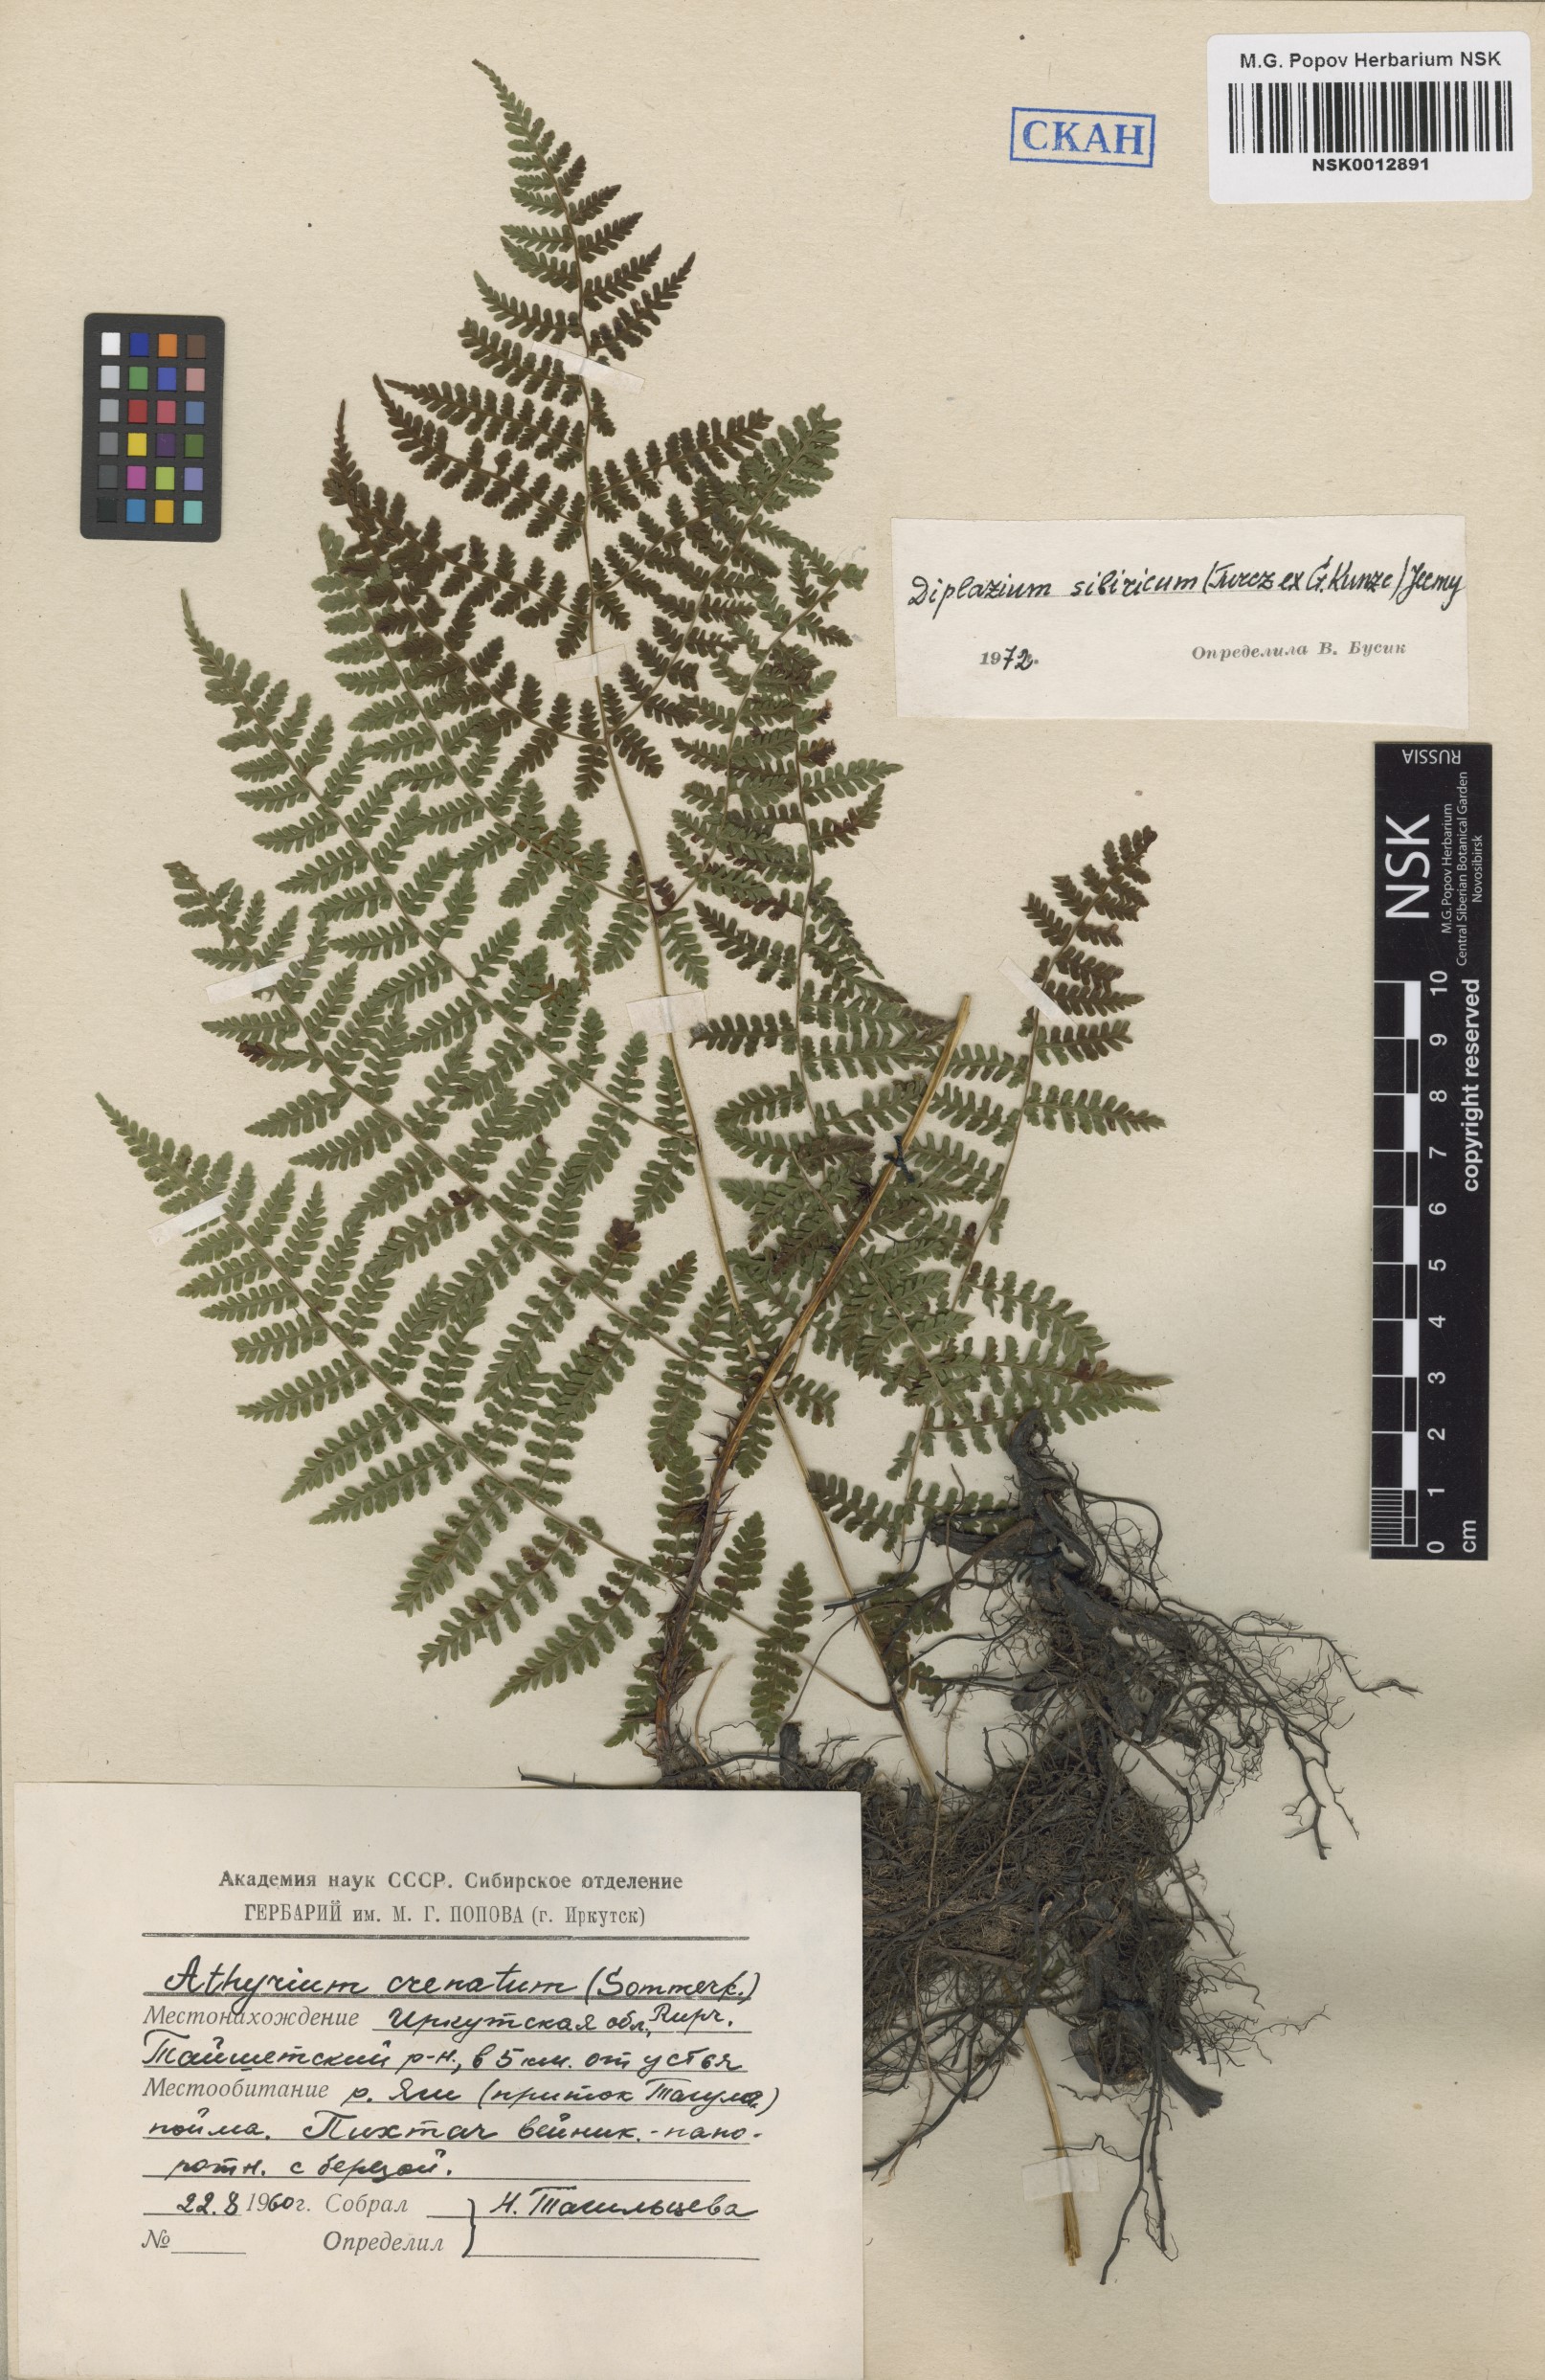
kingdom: Plantae
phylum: Tracheophyta
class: Polypodiopsida
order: Polypodiales
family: Athyriaceae
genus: Diplazium
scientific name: Diplazium sibiricum
